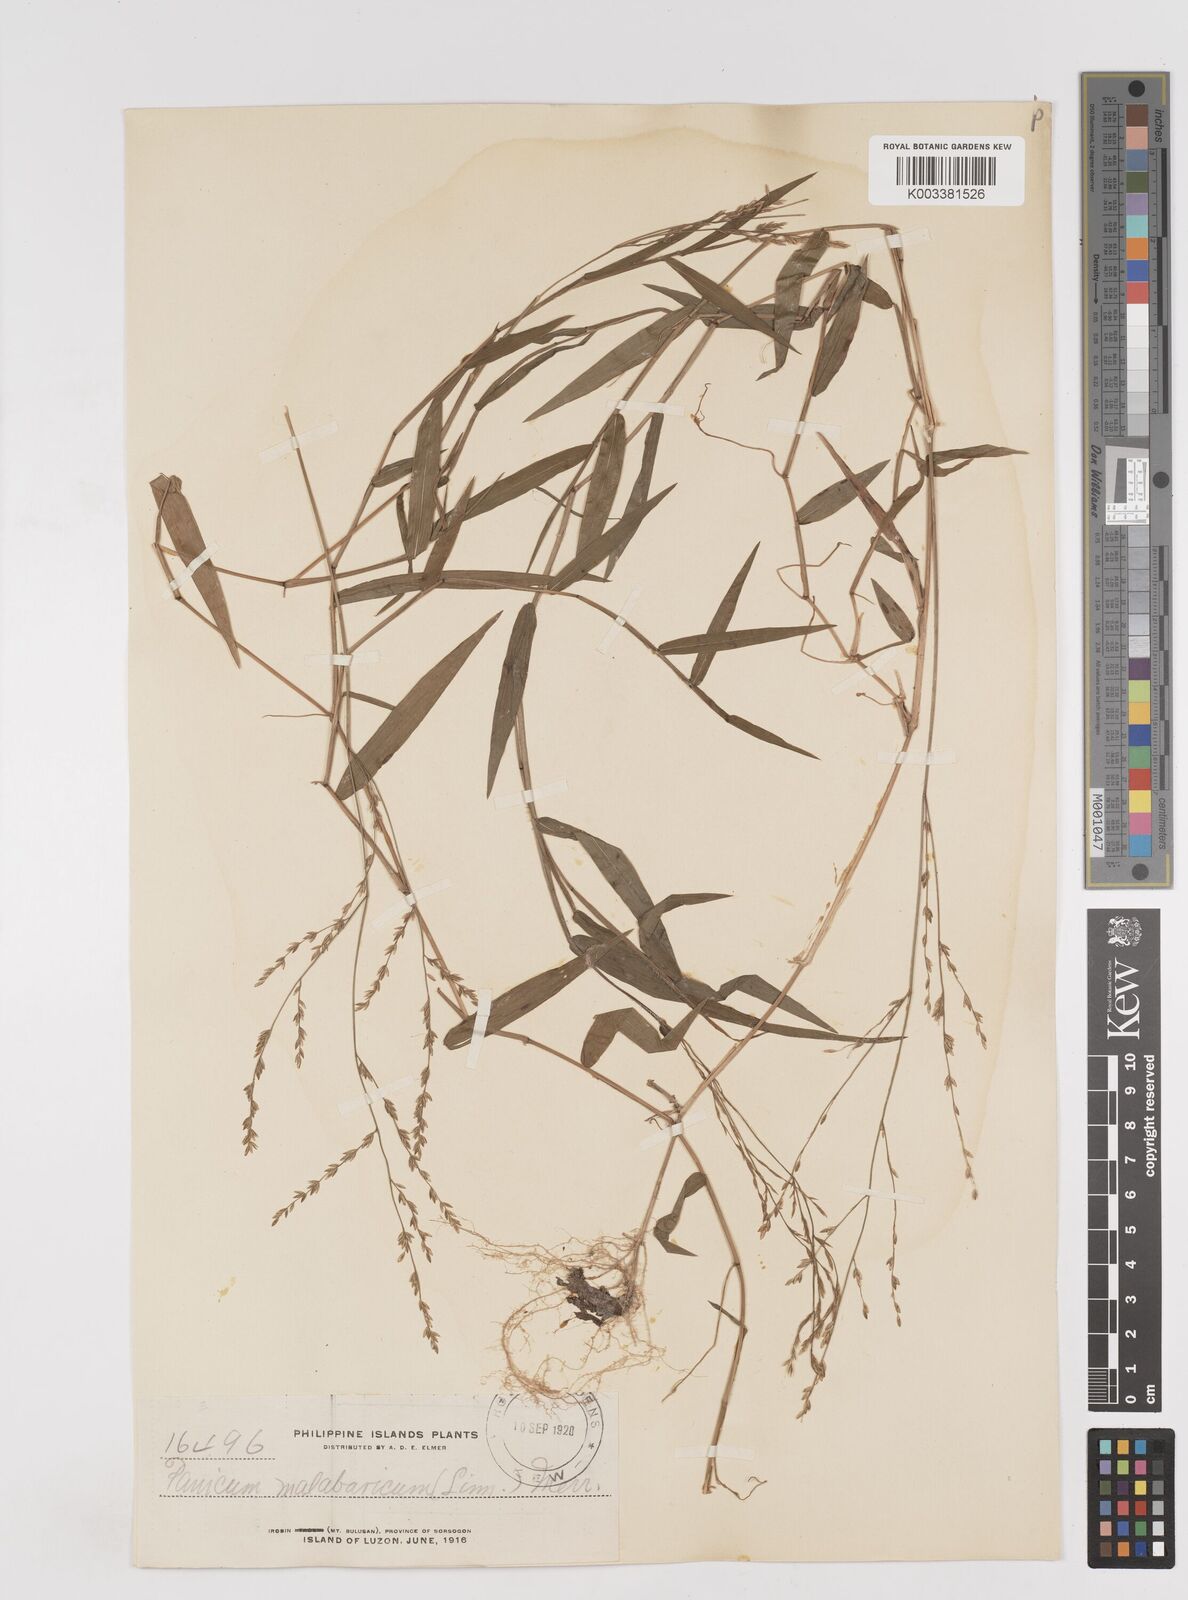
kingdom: Plantae
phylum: Tracheophyta
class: Liliopsida
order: Poales
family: Poaceae
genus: Ottochloa
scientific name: Ottochloa nodosa
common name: Slender-panic grass
